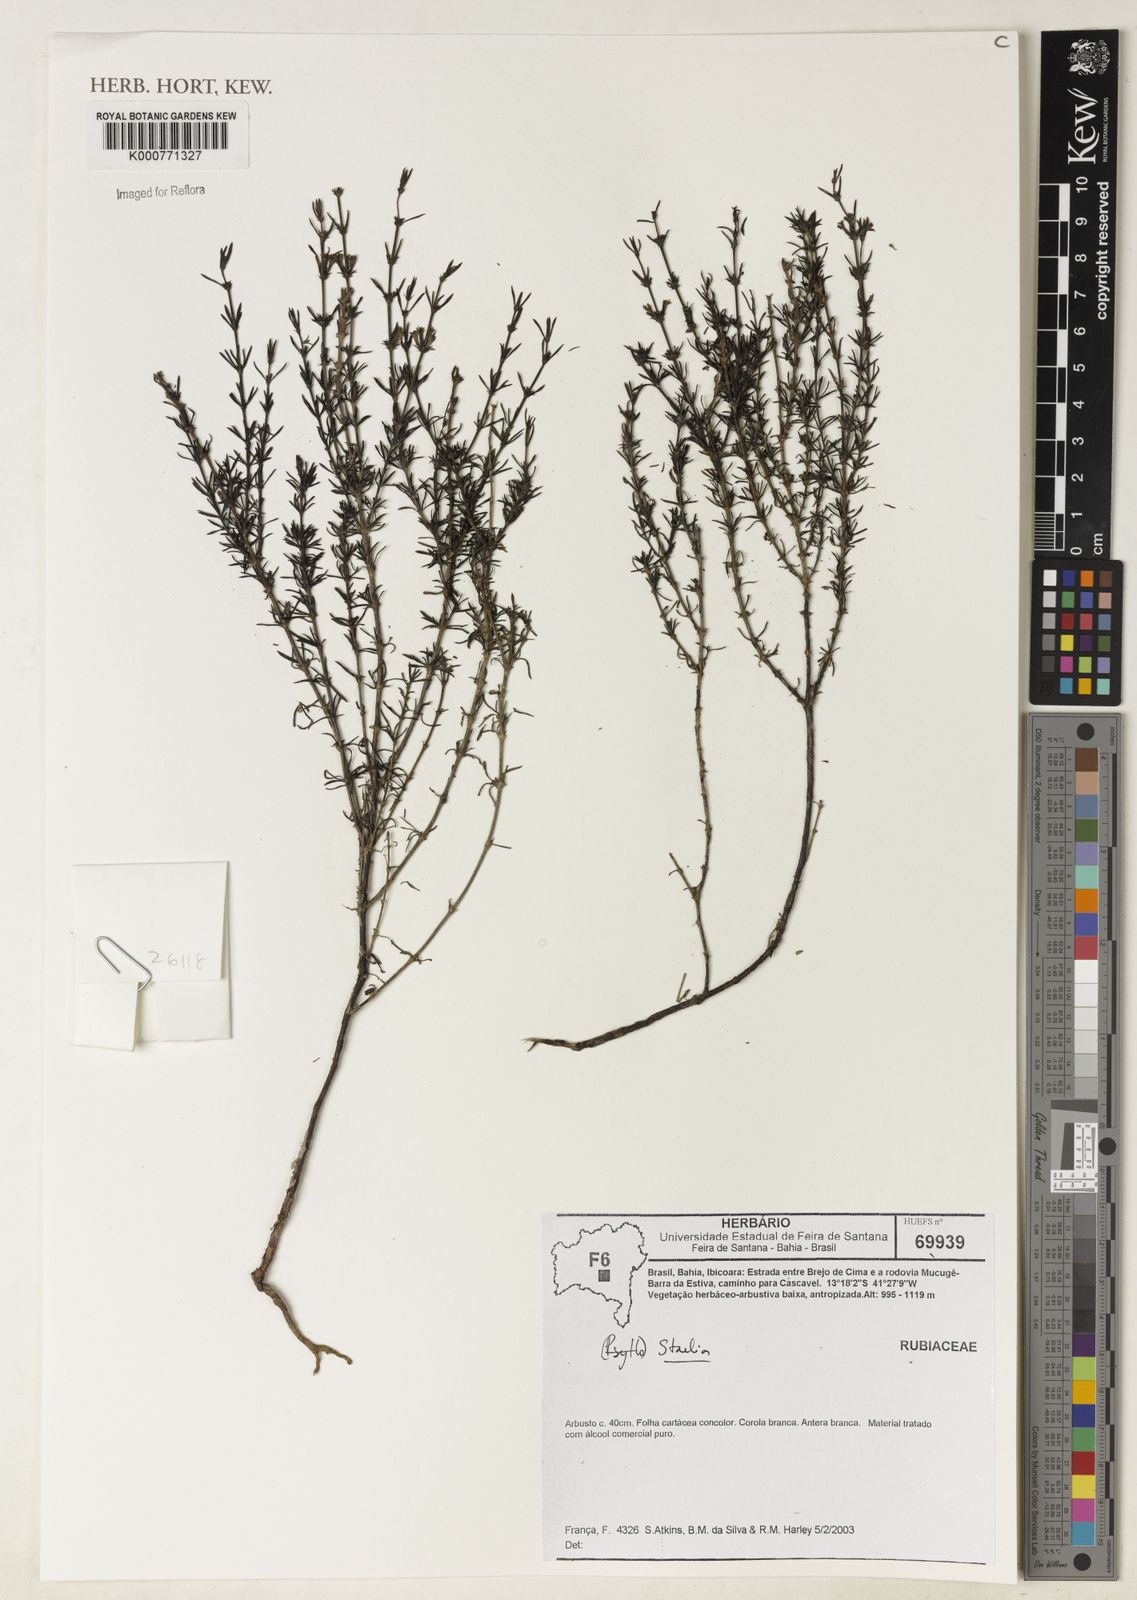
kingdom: Plantae
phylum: Tracheophyta
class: Magnoliopsida
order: Gentianales
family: Rubiaceae
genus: Staelia
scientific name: Staelia
